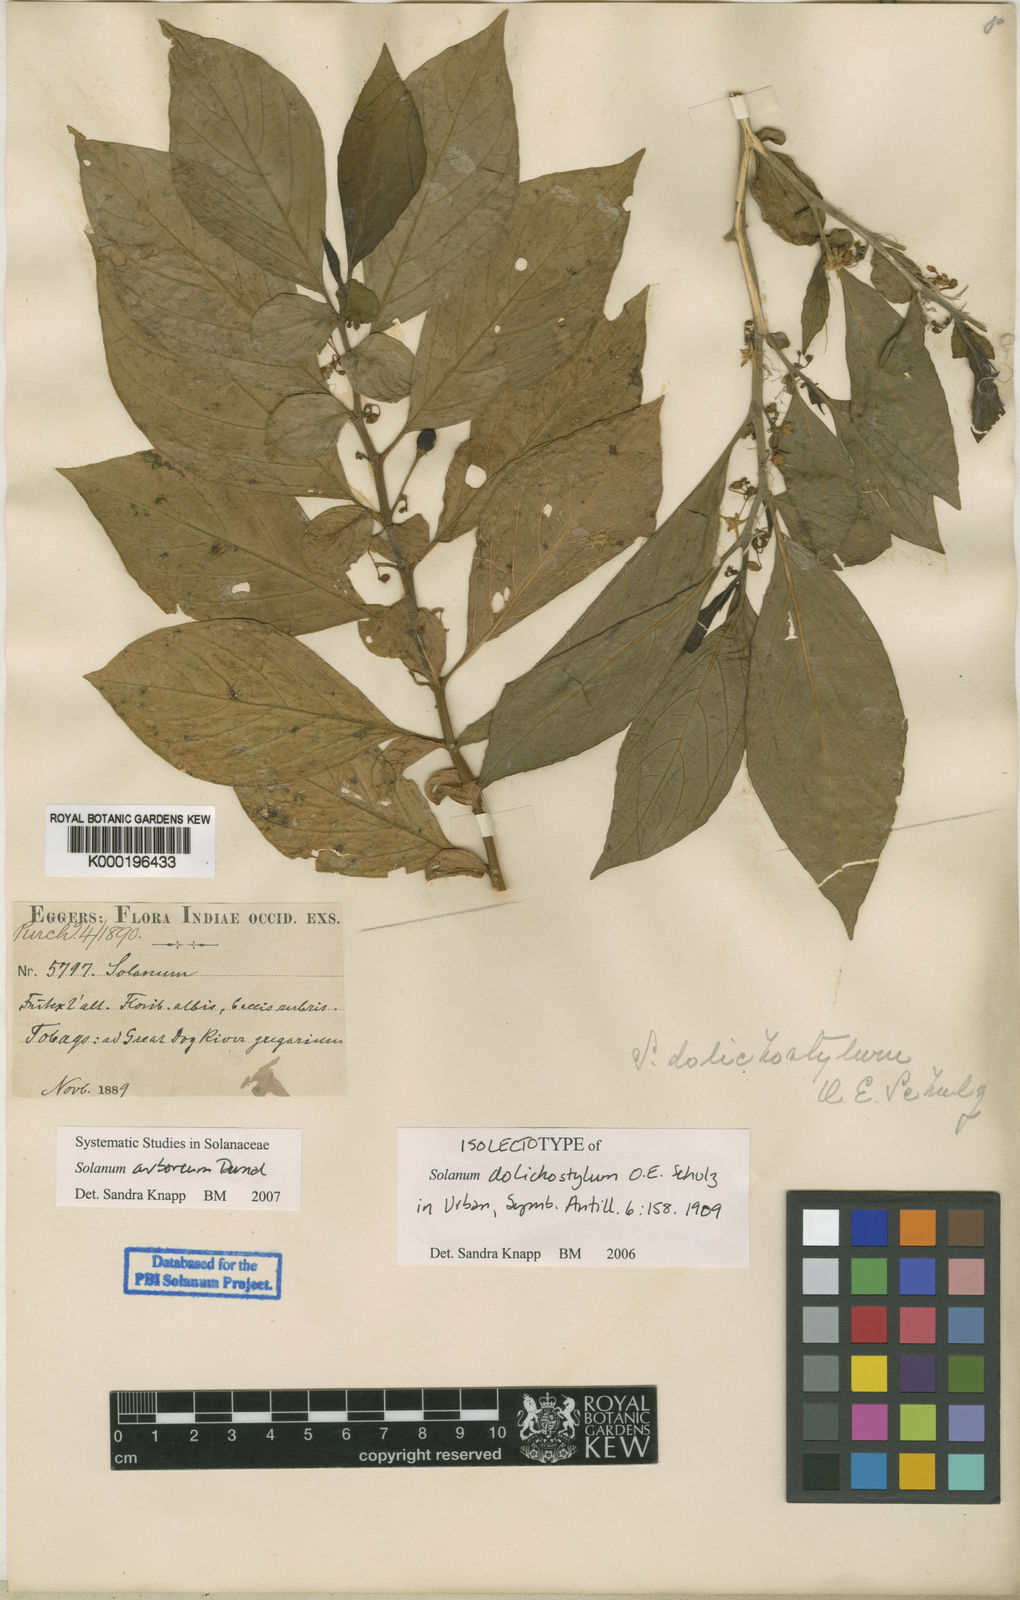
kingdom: Plantae
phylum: Tracheophyta
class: Magnoliopsida
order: Solanales
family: Solanaceae
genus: Solanum
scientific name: Solanum arboreum
